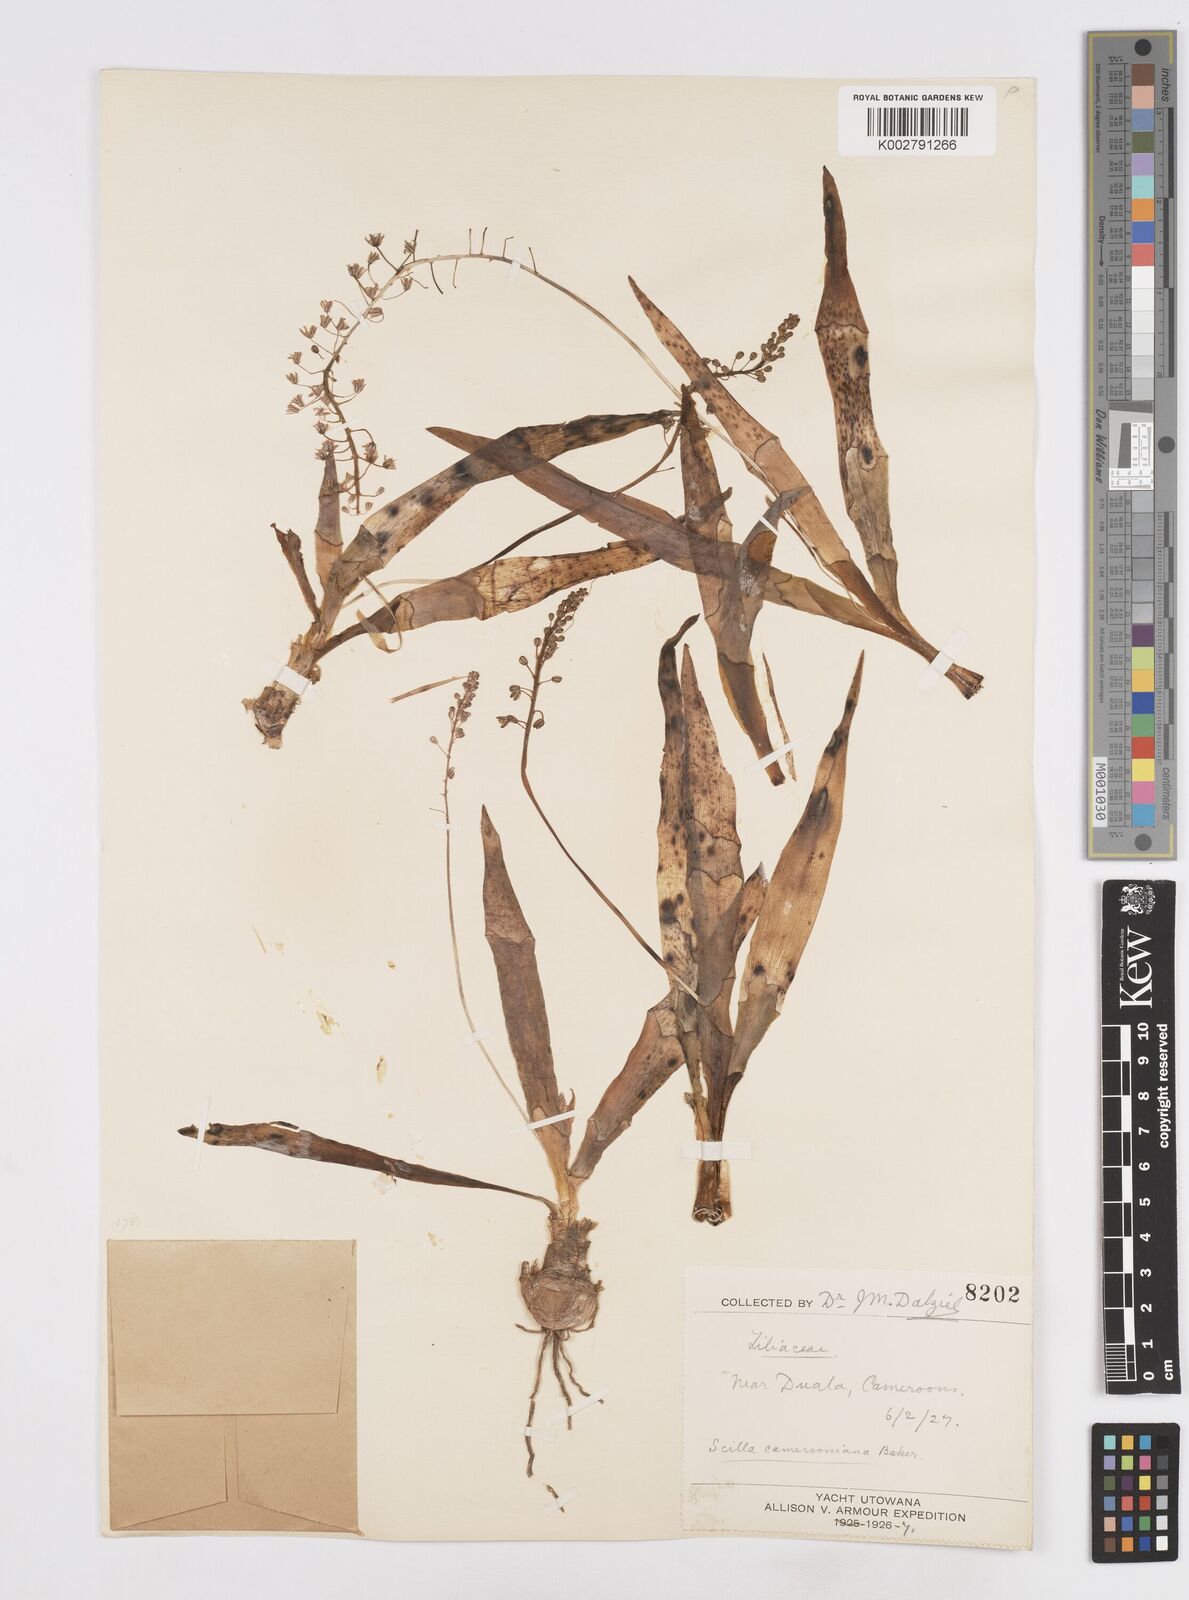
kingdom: Plantae
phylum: Tracheophyta
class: Liliopsida
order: Asparagales
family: Asparagaceae
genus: Ledebouria
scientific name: Ledebouria camerooniana
